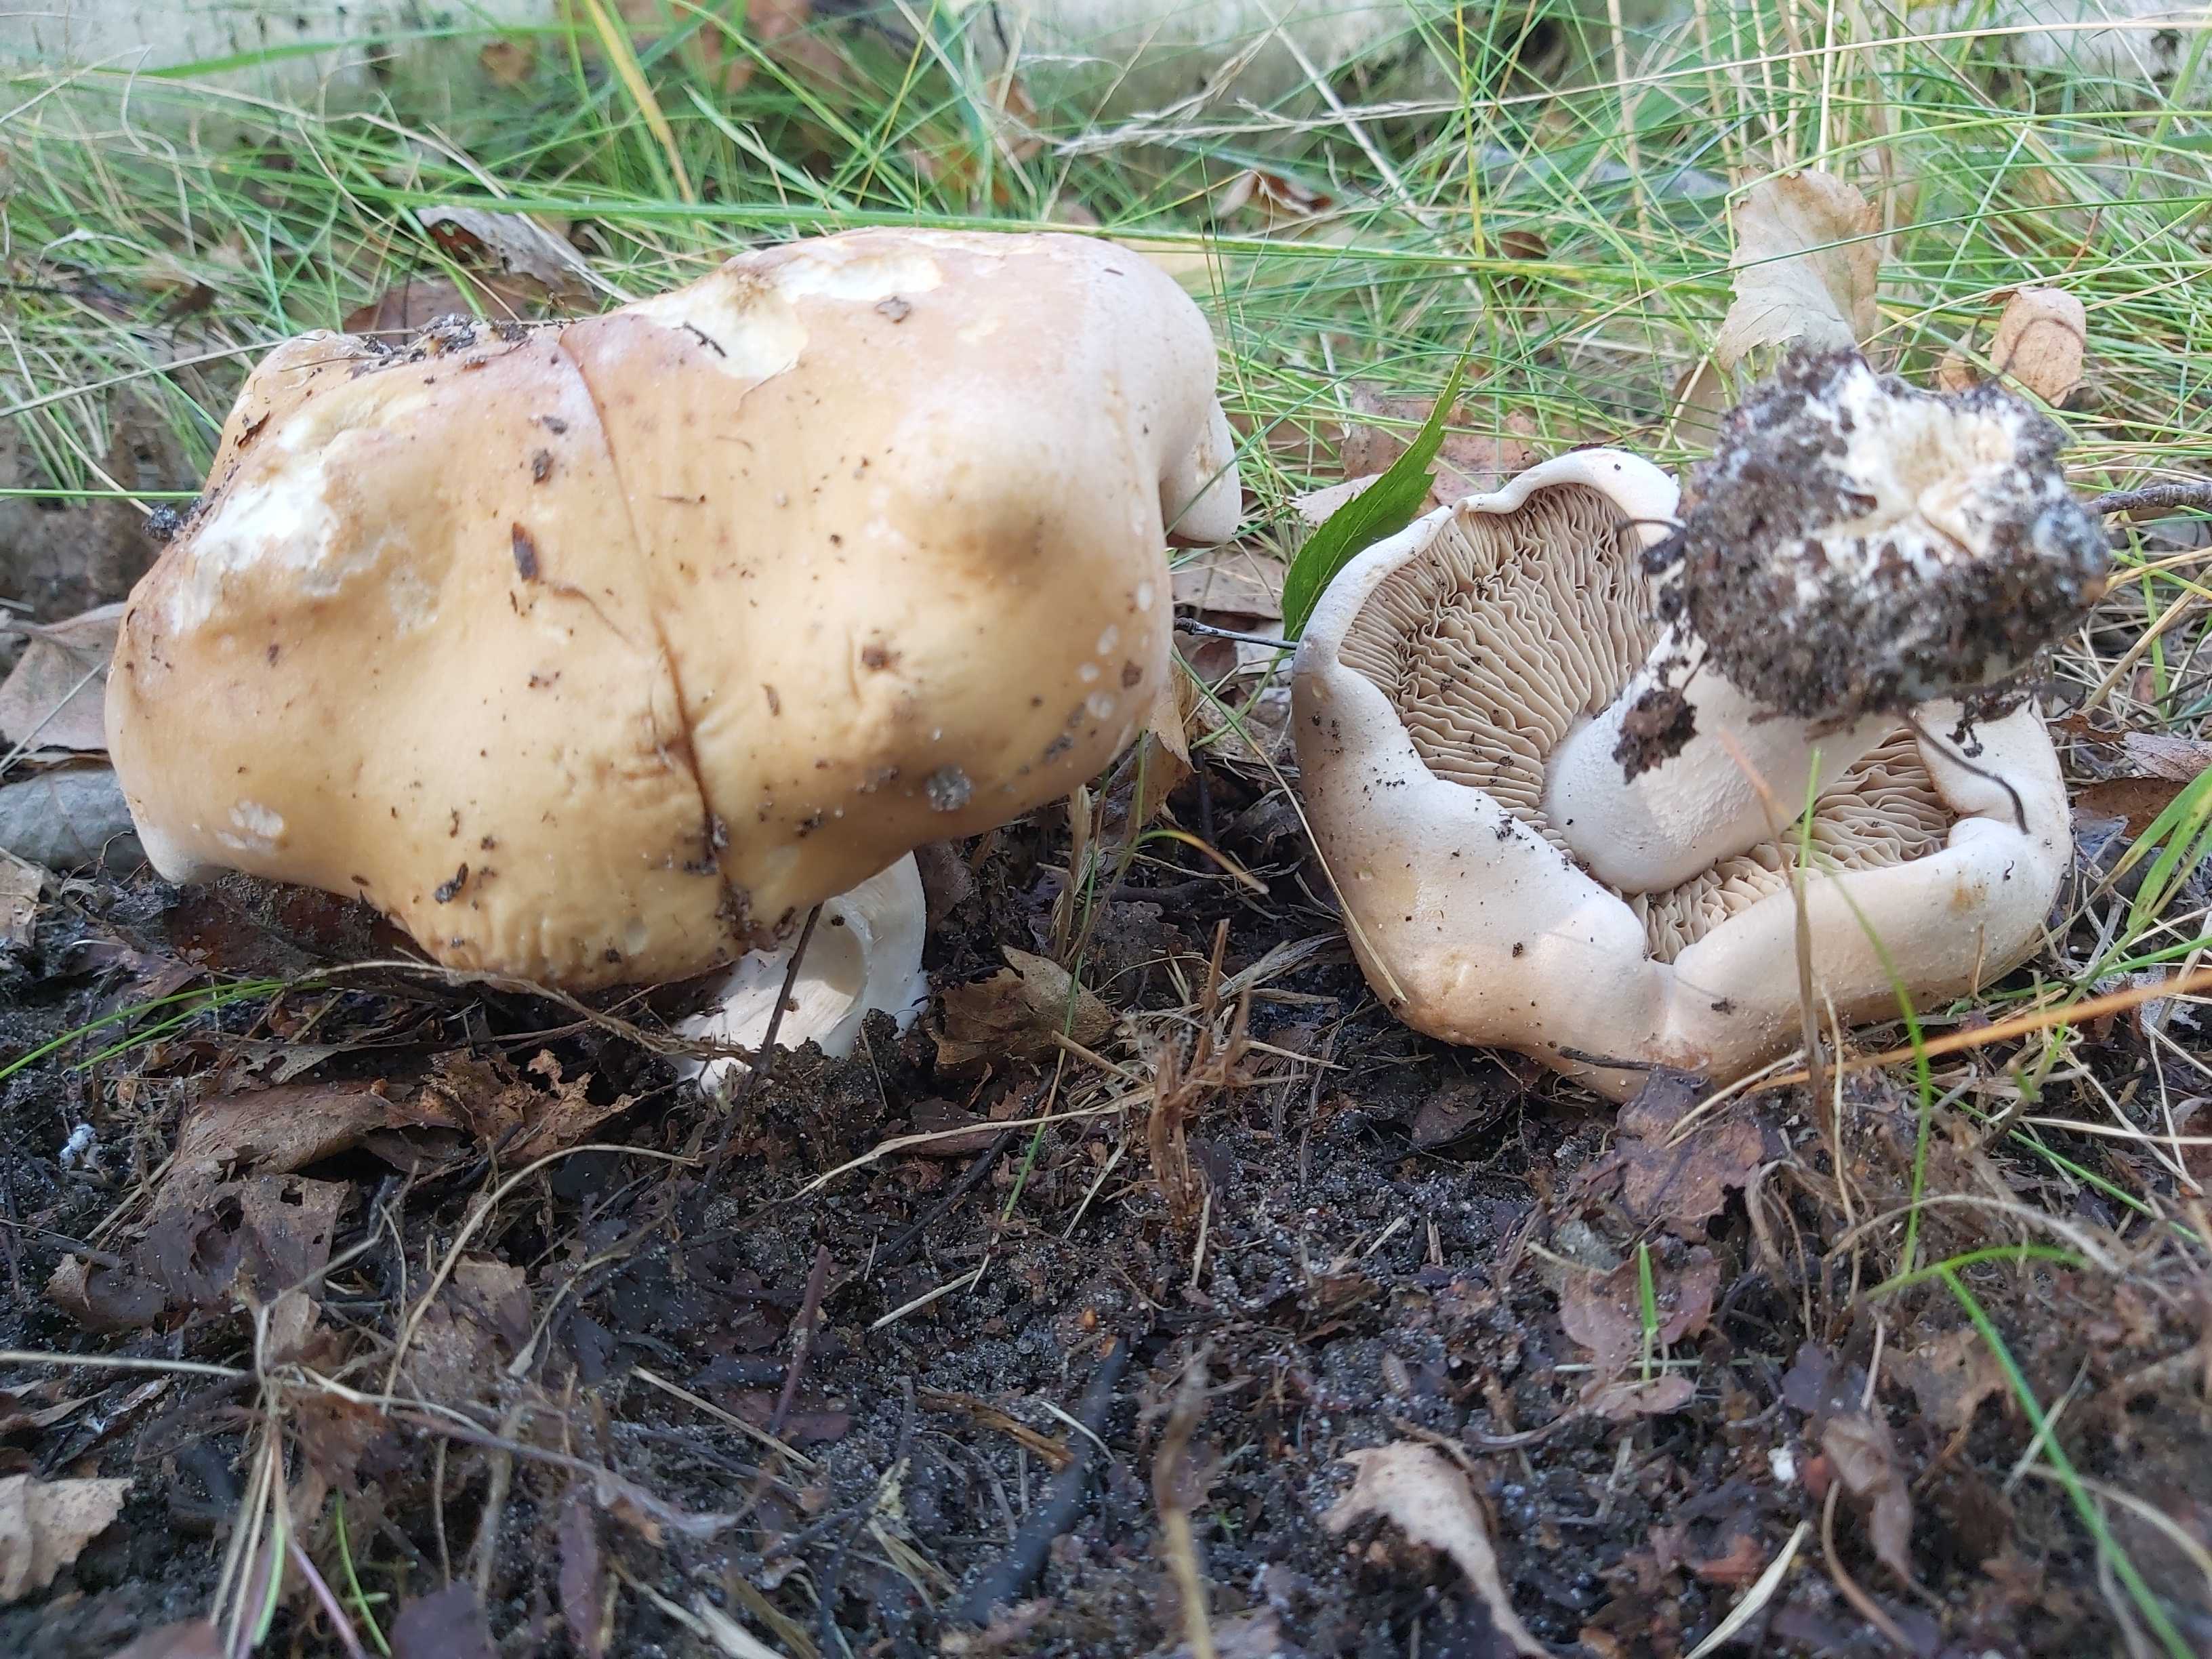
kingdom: Fungi
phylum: Basidiomycota
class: Agaricomycetes
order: Agaricales
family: Hymenogastraceae
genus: Hebeloma
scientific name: Hebeloma
